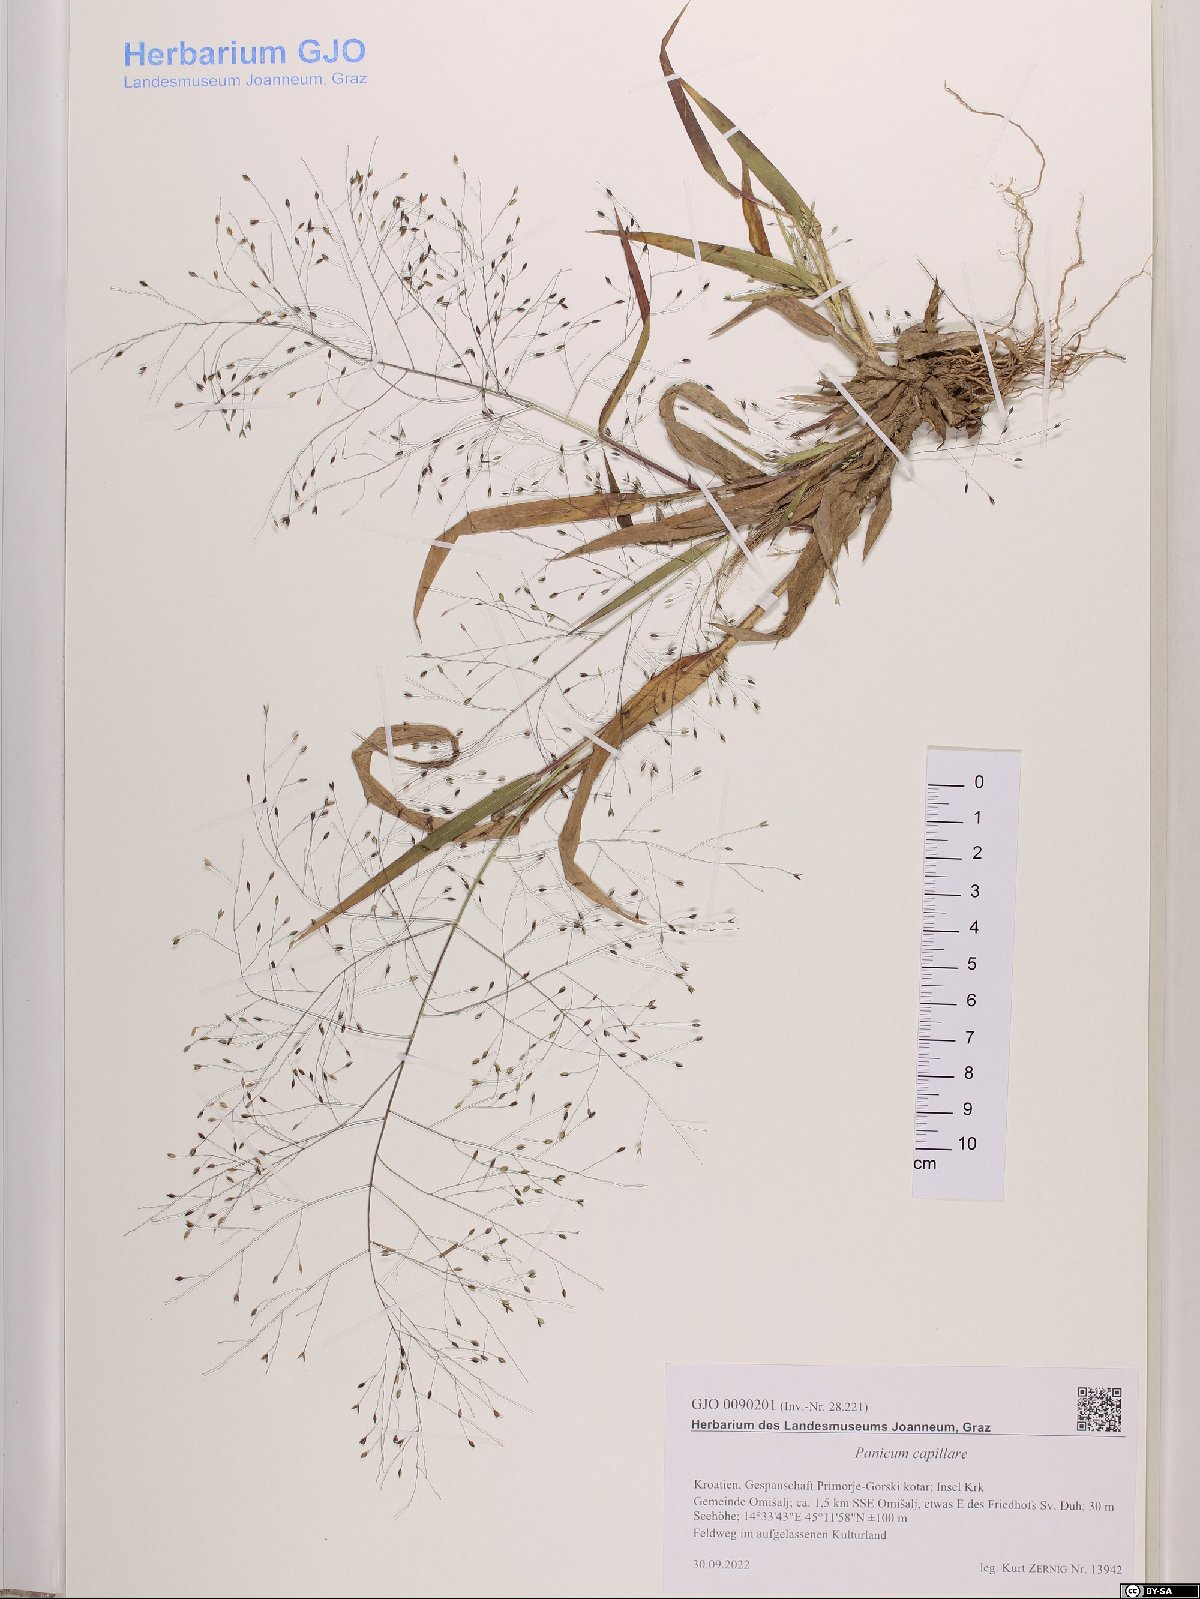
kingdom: Plantae
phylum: Tracheophyta
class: Liliopsida
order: Poales
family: Poaceae
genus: Panicum
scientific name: Panicum capillare
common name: Witch-grass
